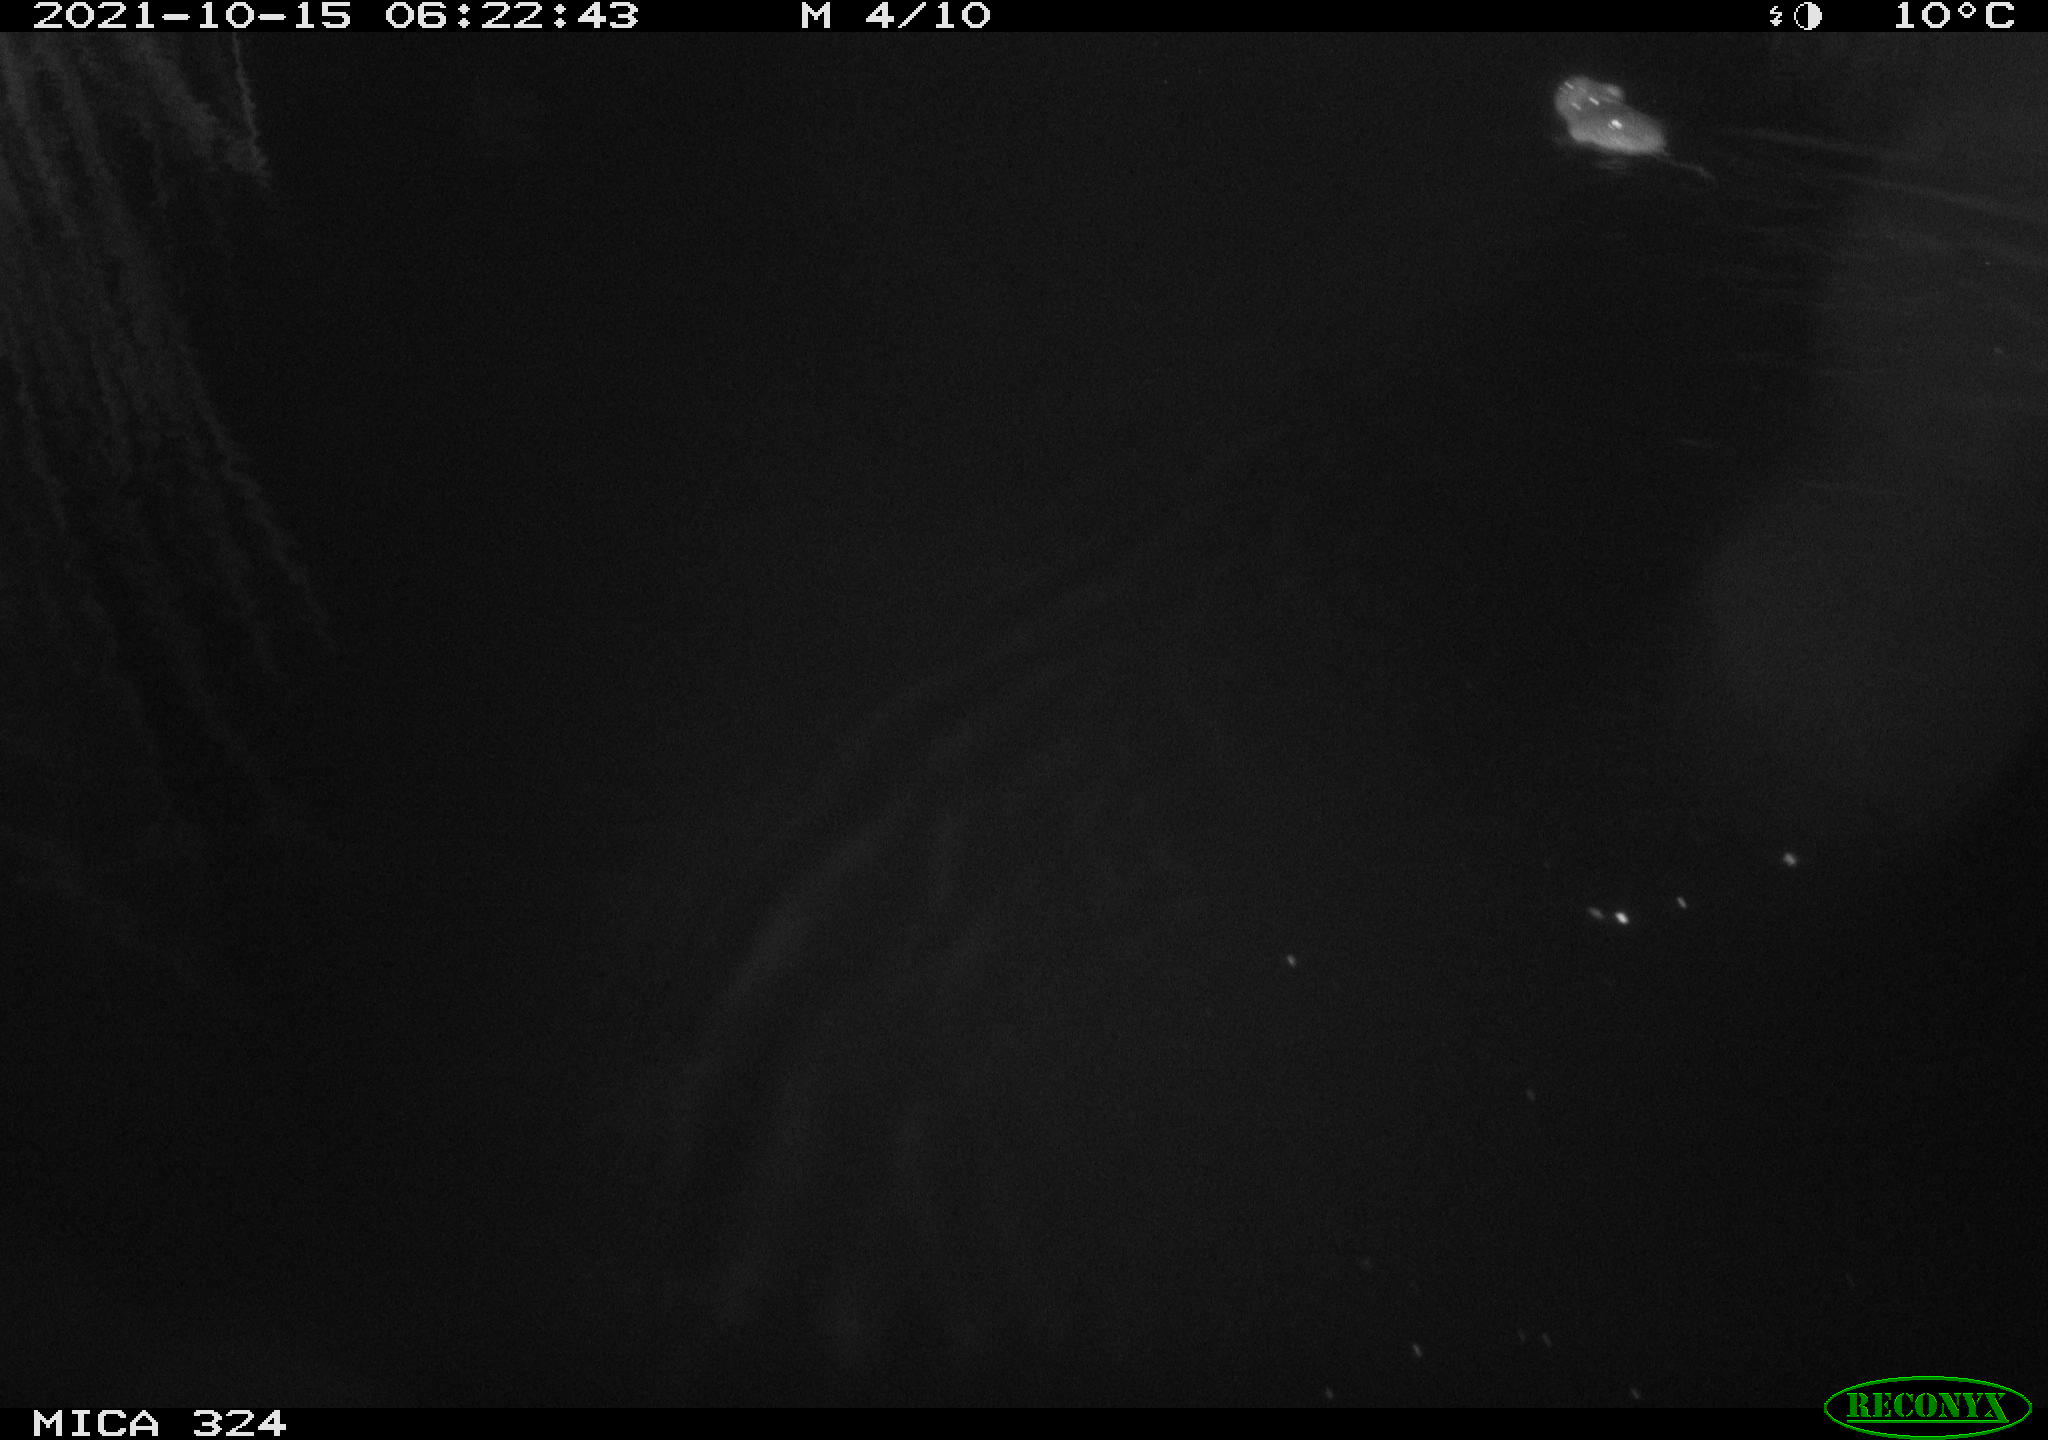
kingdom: Animalia
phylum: Chordata
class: Mammalia
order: Rodentia
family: Cricetidae
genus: Ondatra
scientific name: Ondatra zibethicus
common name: Muskrat
